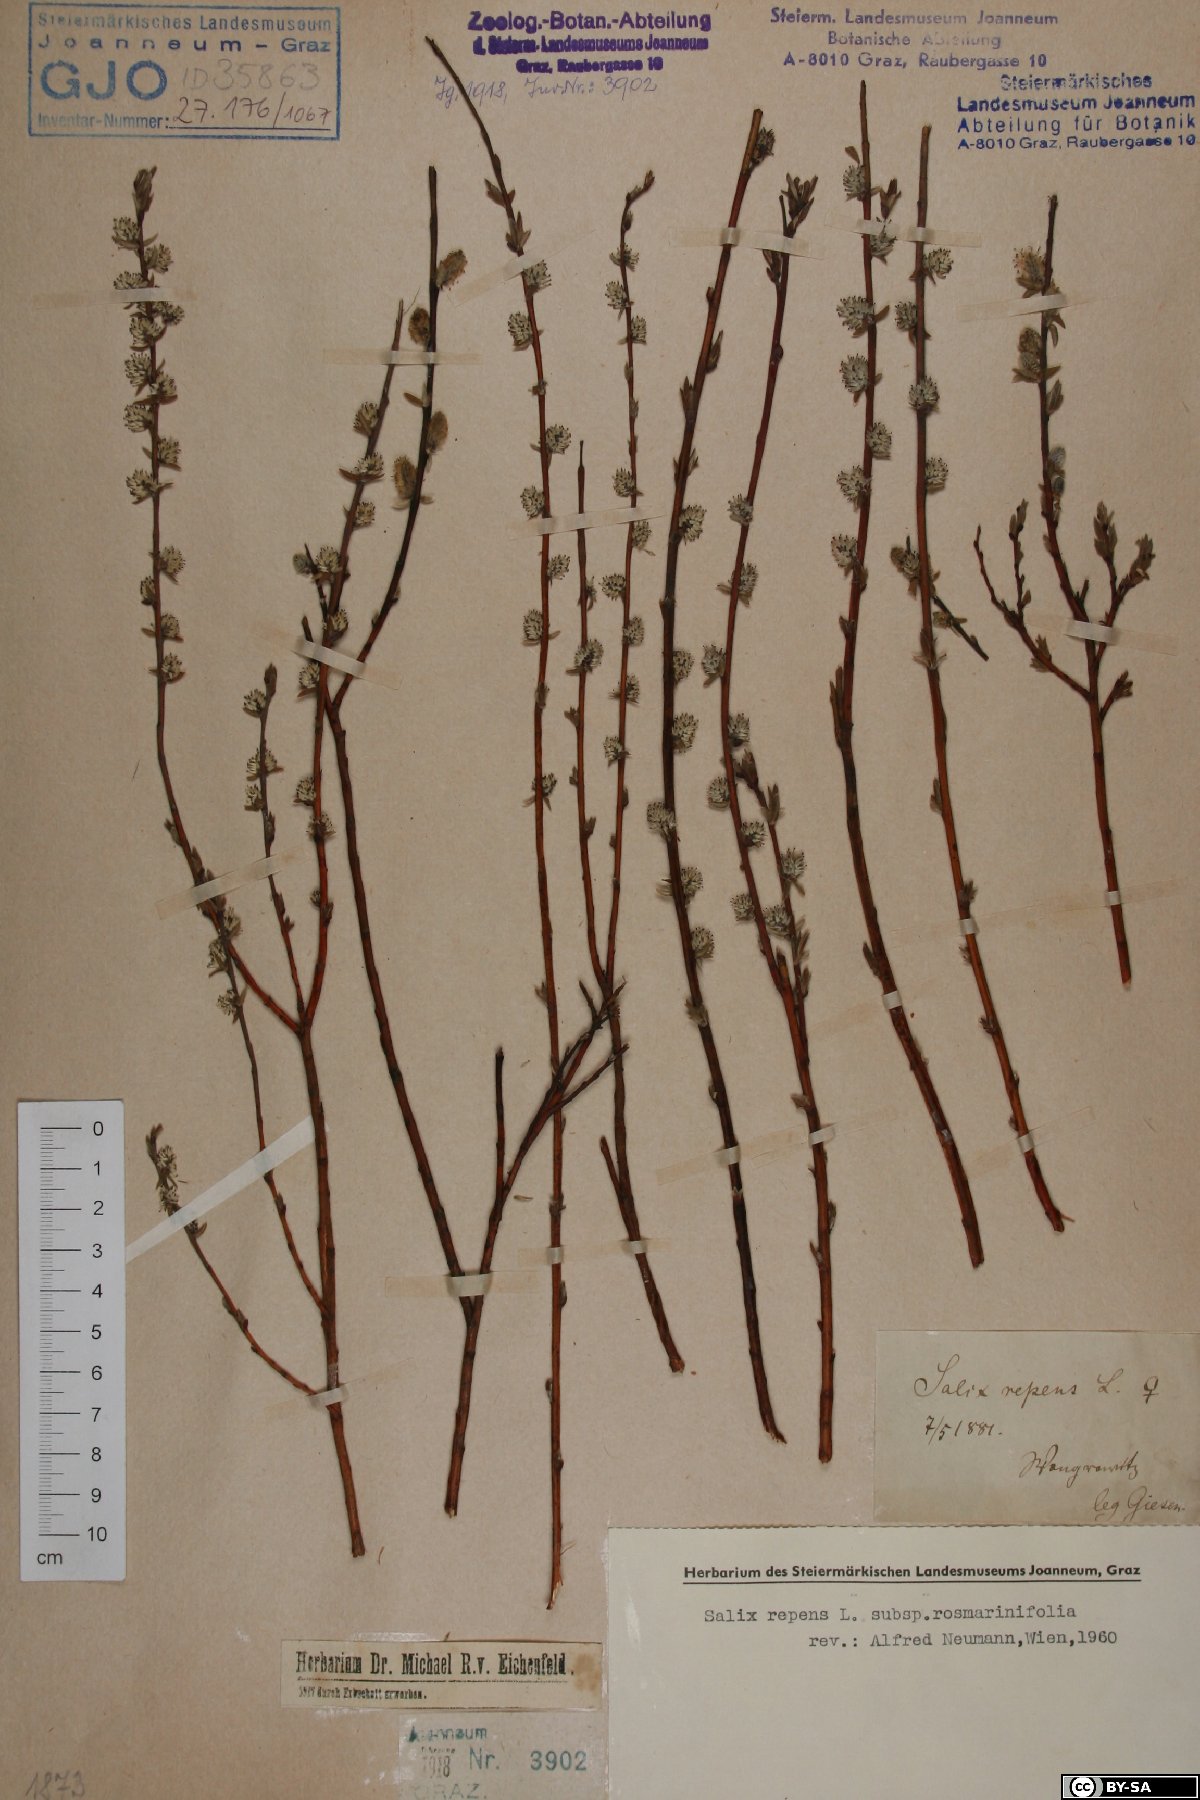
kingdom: Plantae
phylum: Tracheophyta
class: Magnoliopsida
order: Malpighiales
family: Salicaceae
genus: Salix
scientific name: Salix repens
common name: Creeping willow
